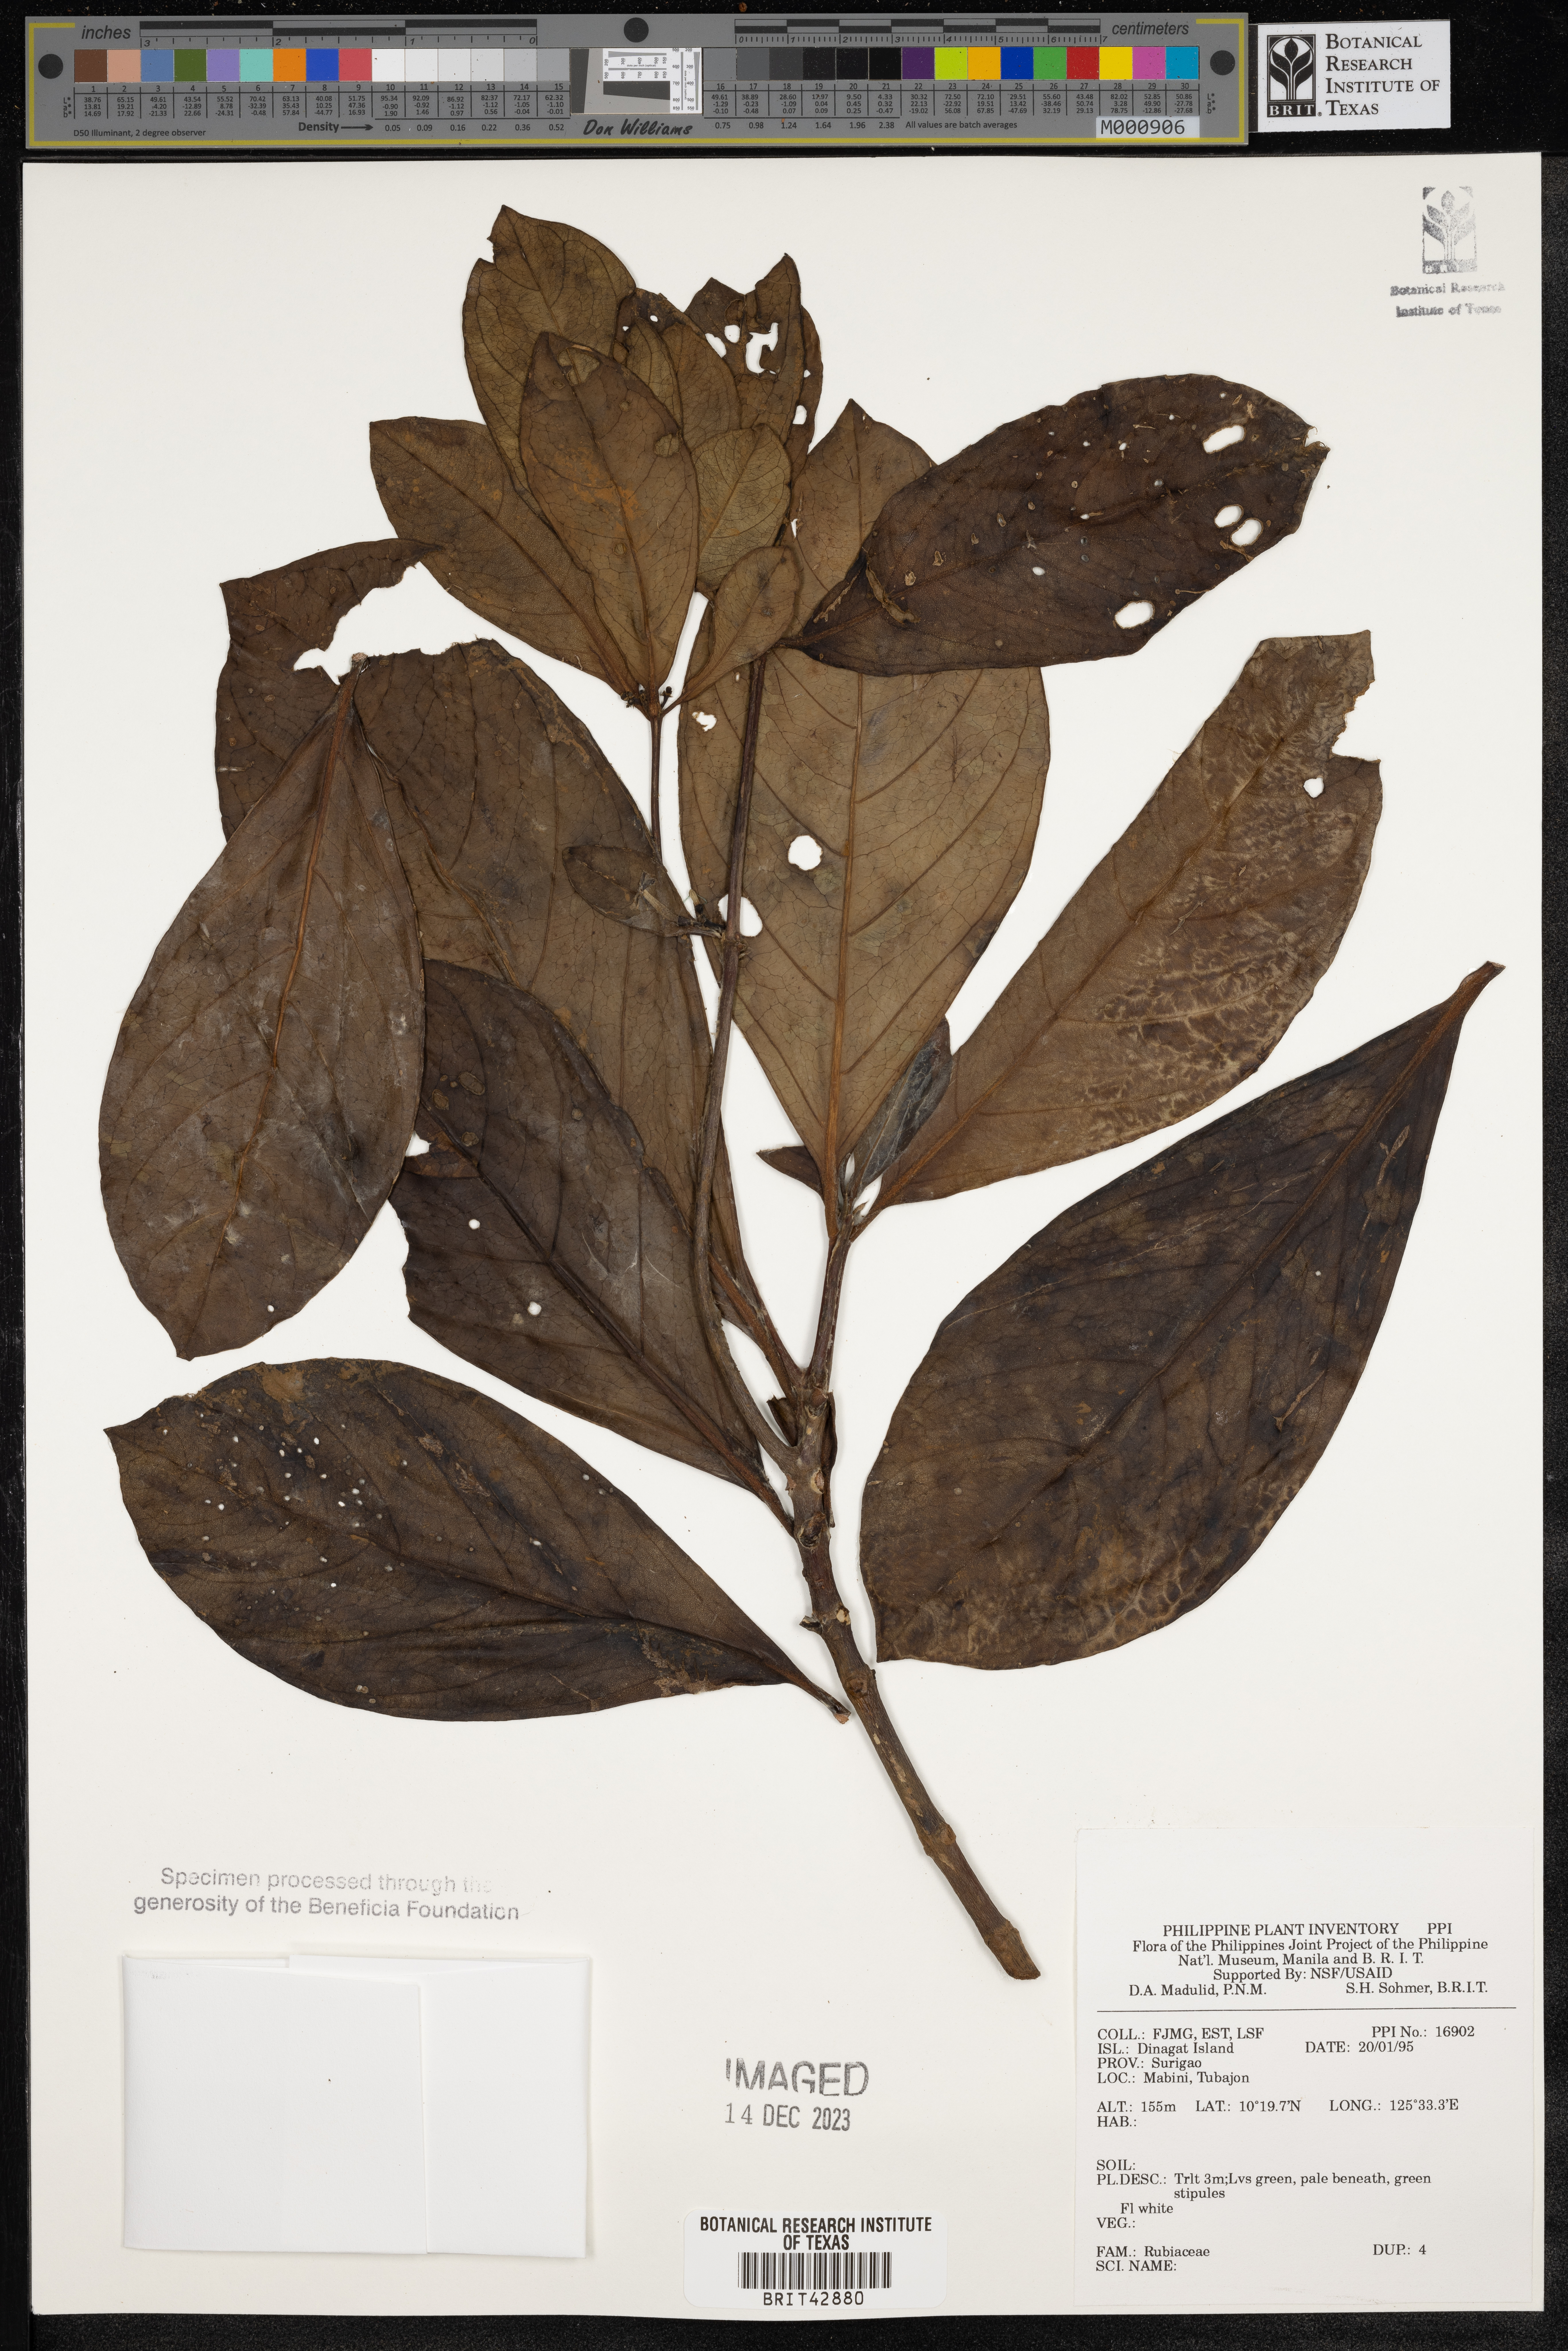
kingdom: Plantae
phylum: Tracheophyta
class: Magnoliopsida
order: Gentianales
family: Rubiaceae
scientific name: Rubiaceae
